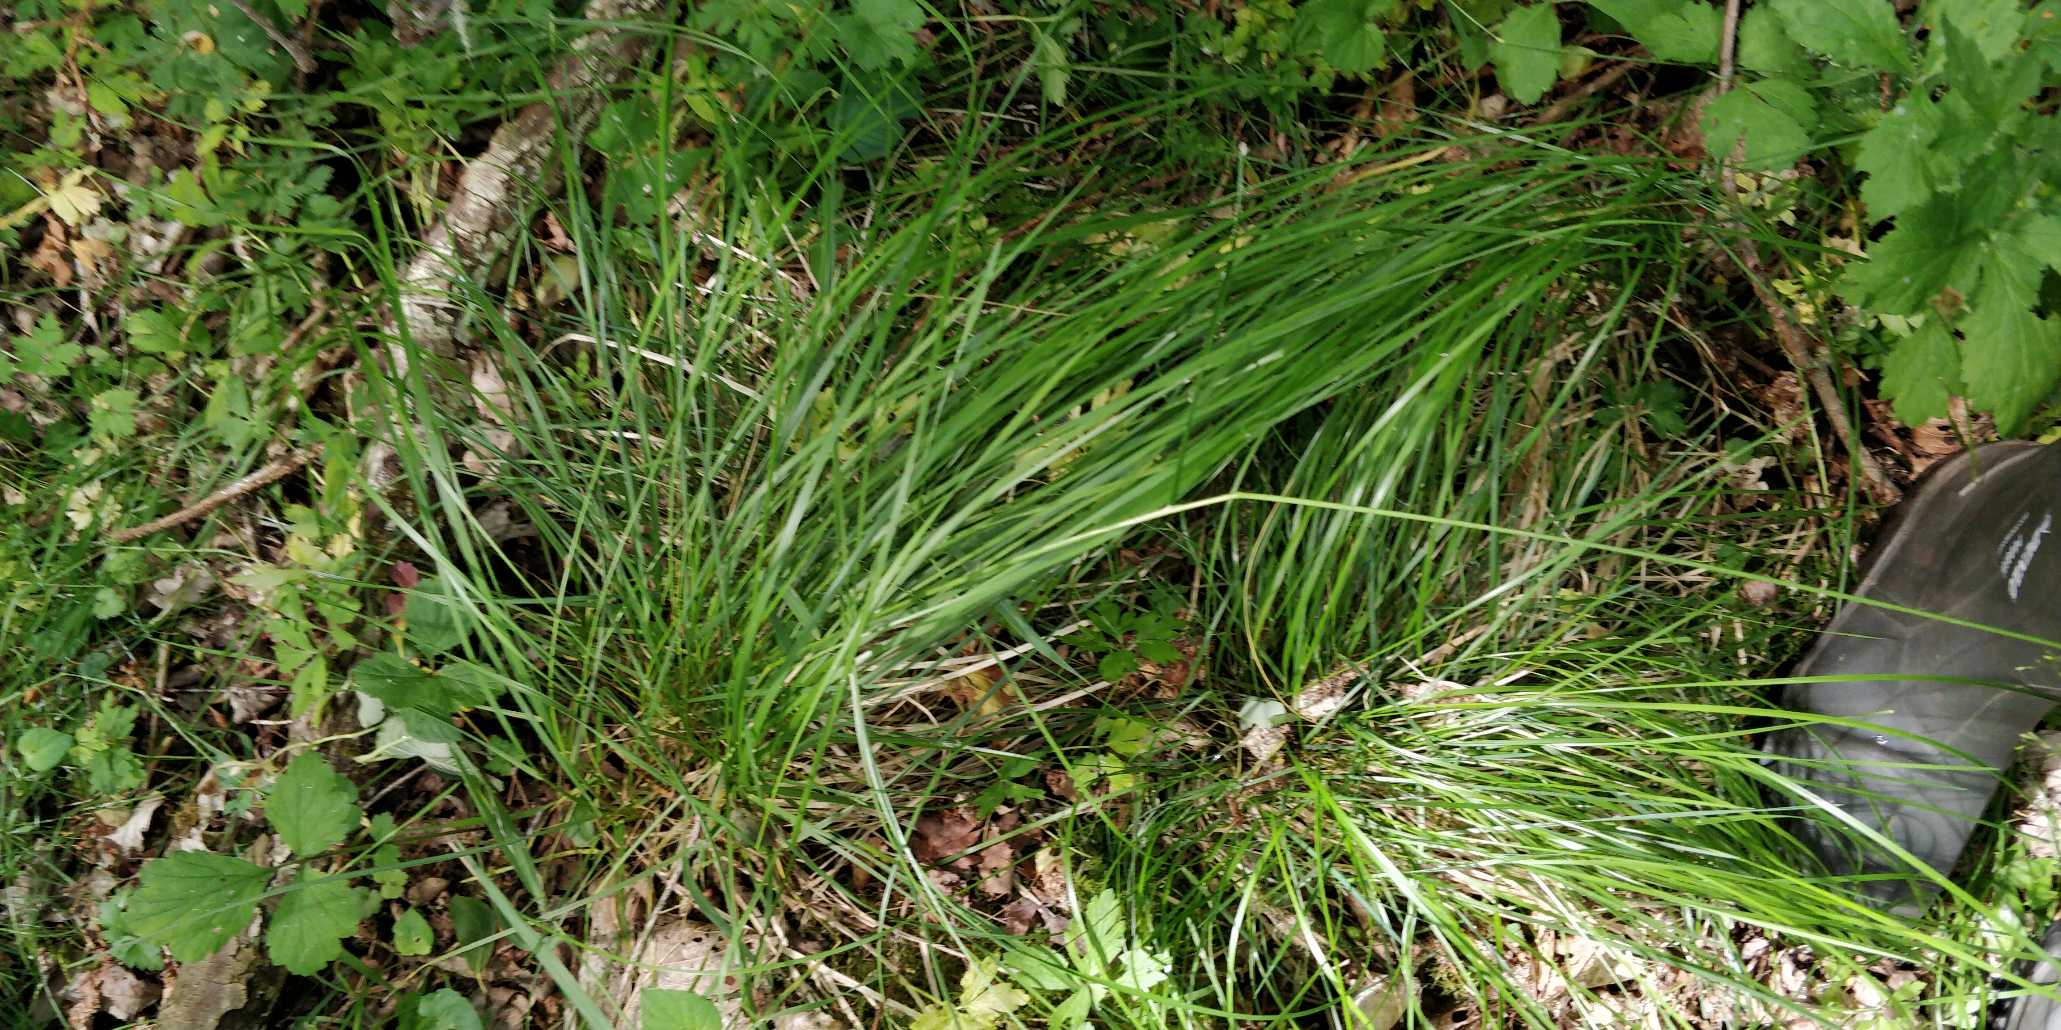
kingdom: Plantae
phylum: Tracheophyta
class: Liliopsida
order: Poales
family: Poaceae
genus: Deschampsia
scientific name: Deschampsia cespitosa
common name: Mose-bunke
